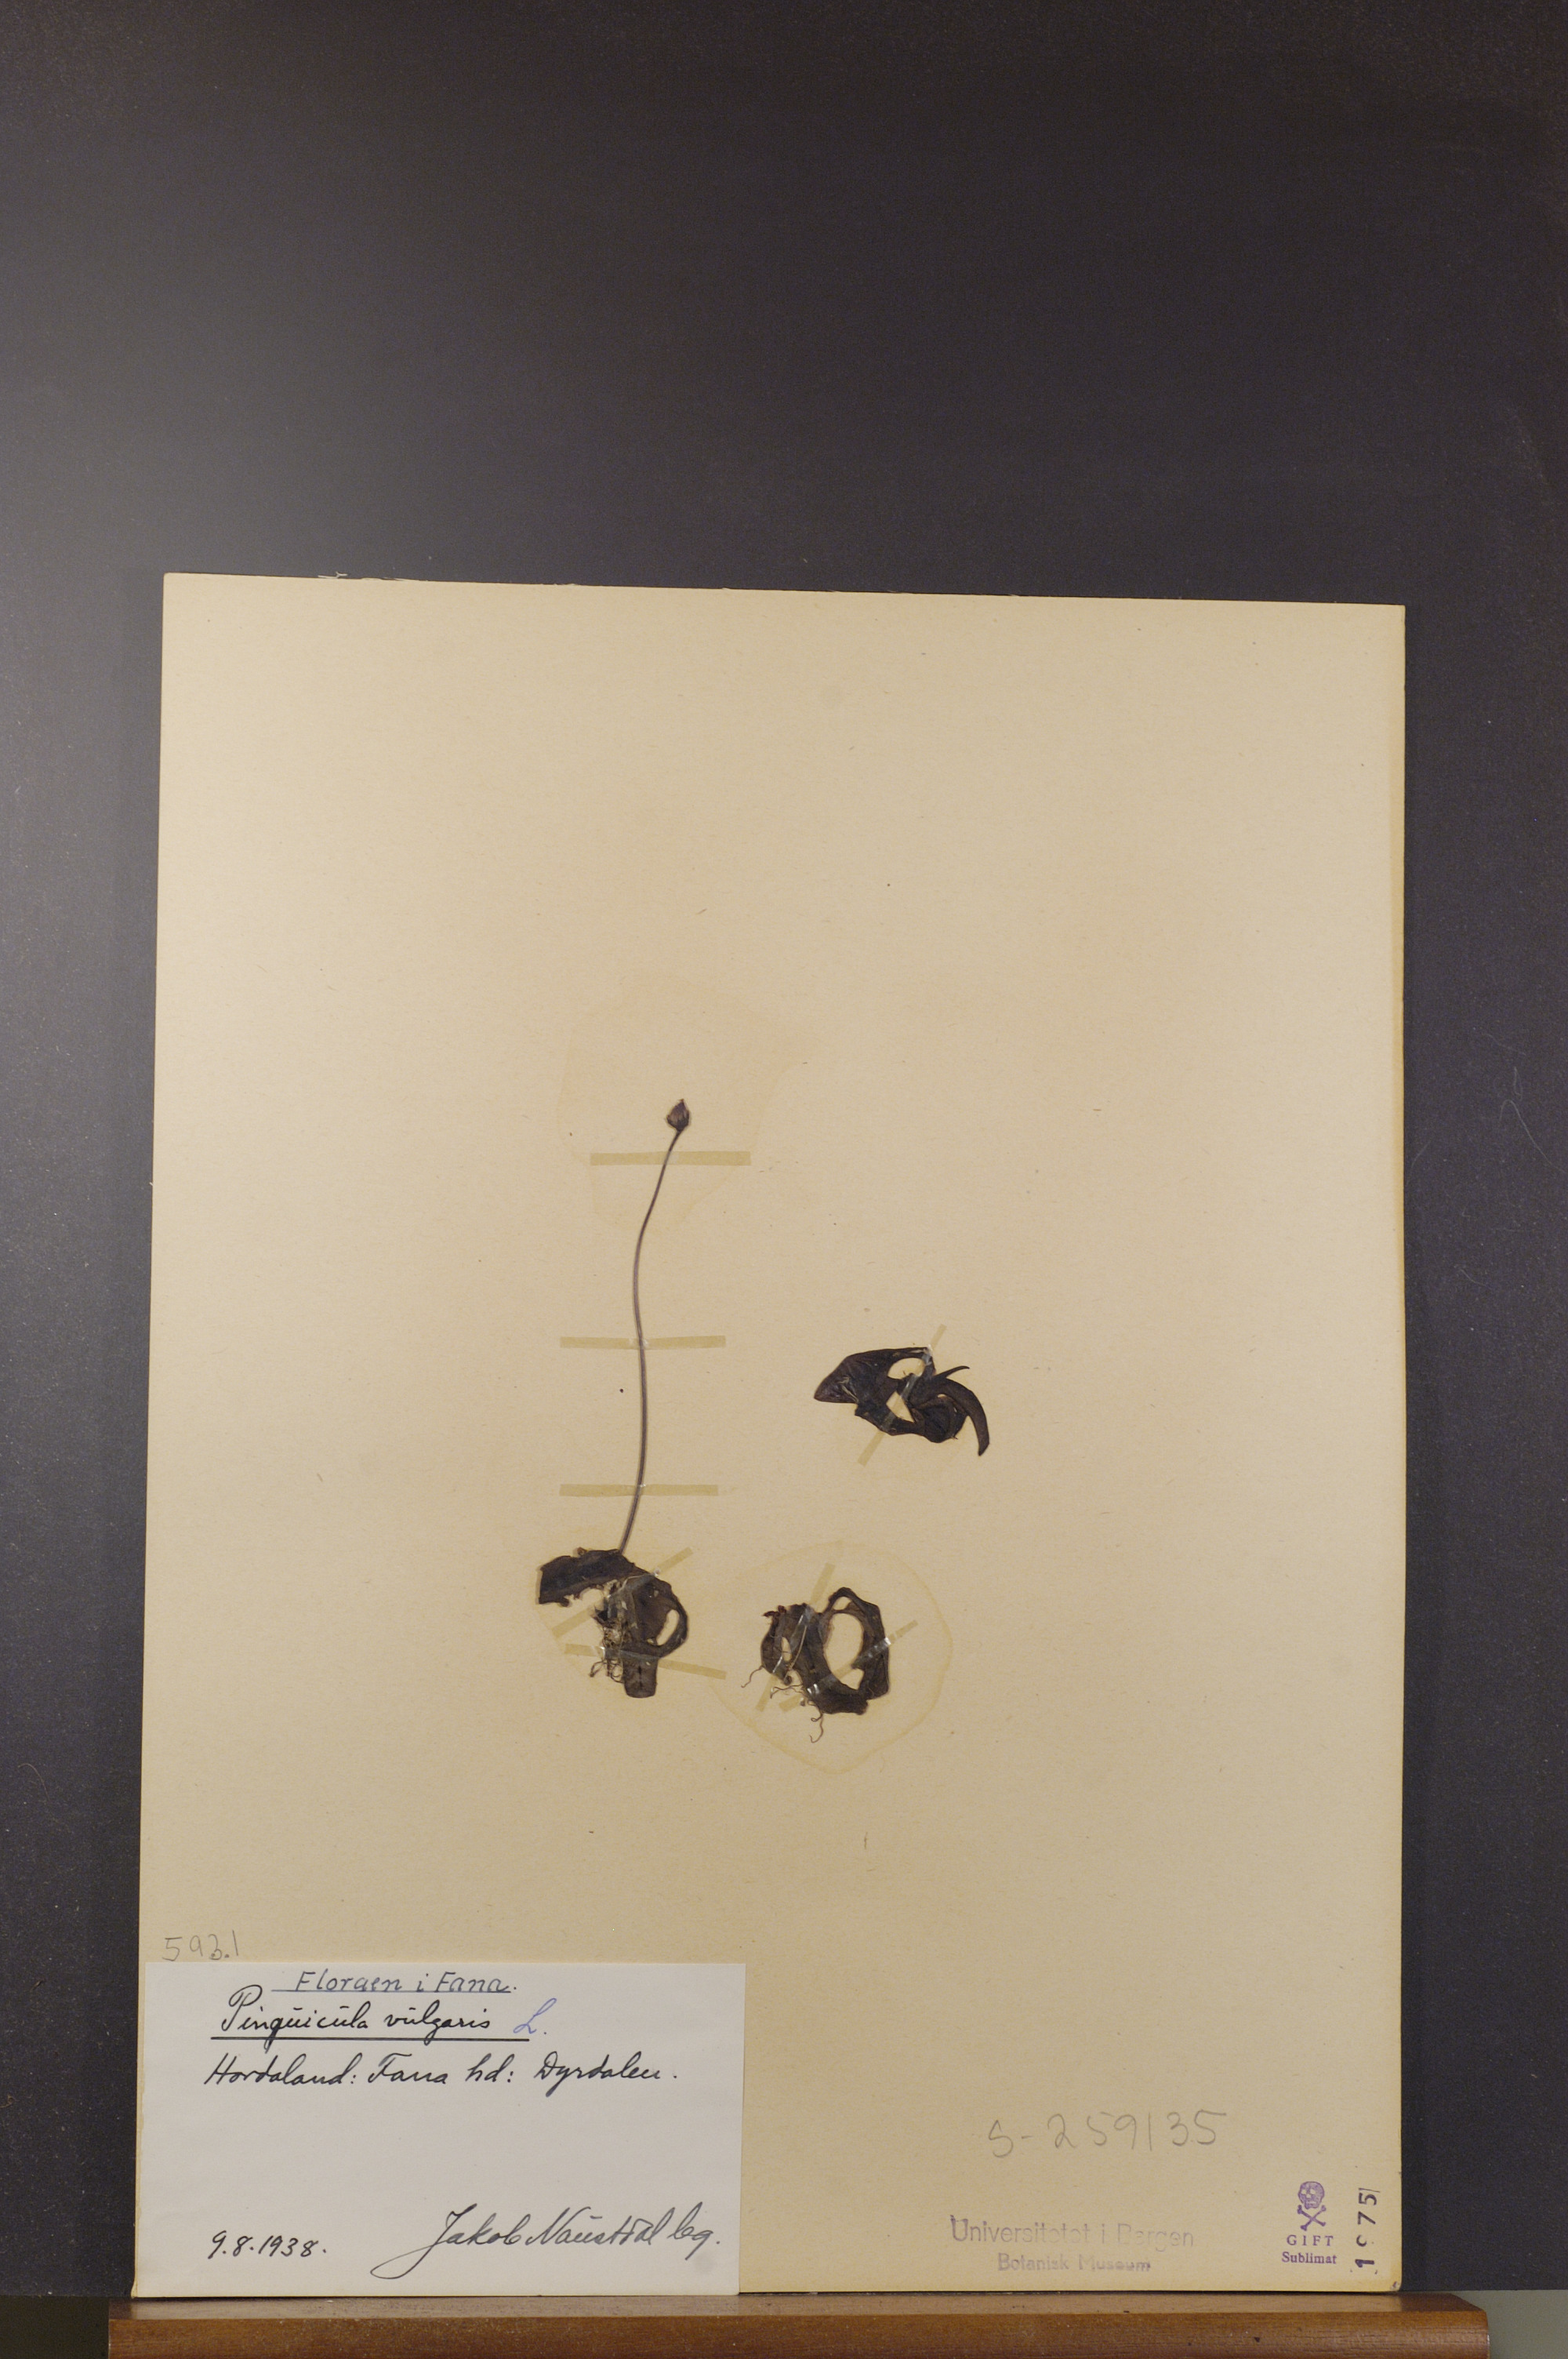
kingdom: Plantae
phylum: Tracheophyta
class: Magnoliopsida
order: Lamiales
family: Lentibulariaceae
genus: Pinguicula
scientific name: Pinguicula vulgaris
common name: Common butterwort
